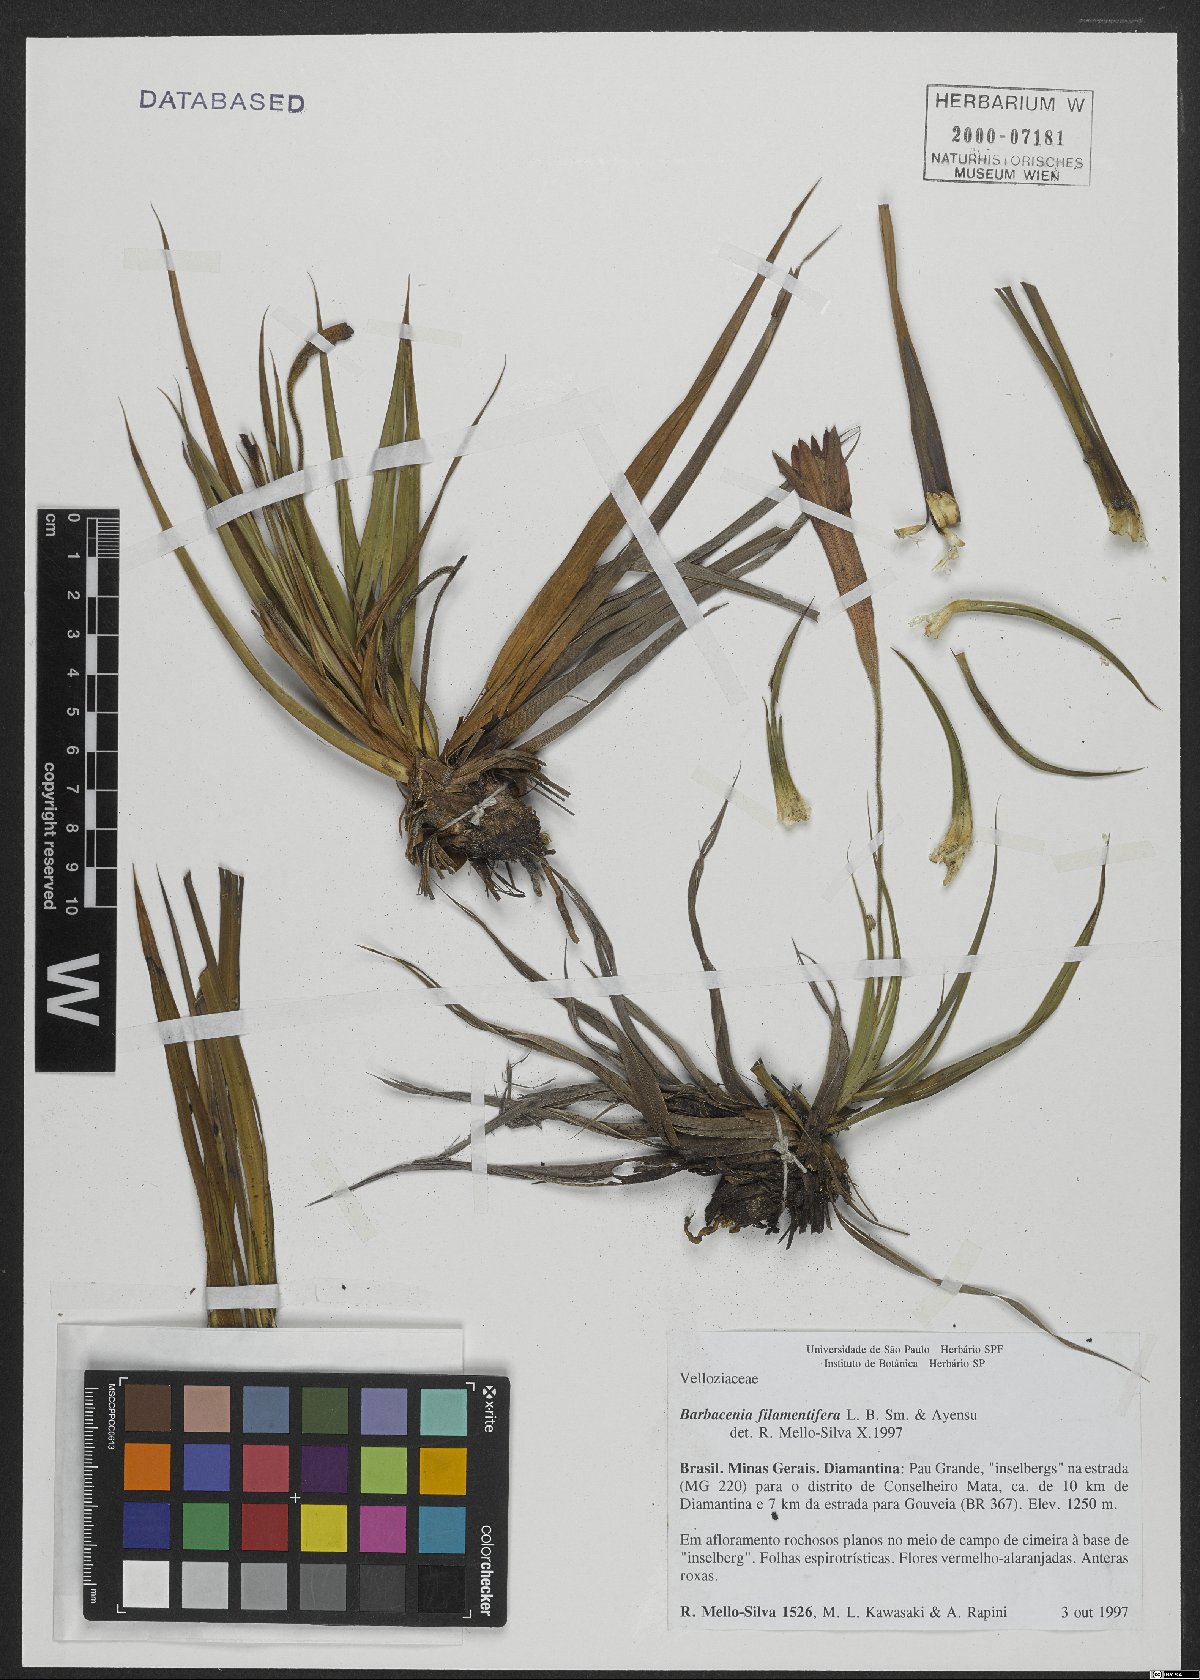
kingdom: Plantae
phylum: Tracheophyta
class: Liliopsida
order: Pandanales
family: Velloziaceae
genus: Barbacenia
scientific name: Barbacenia filamentifera
